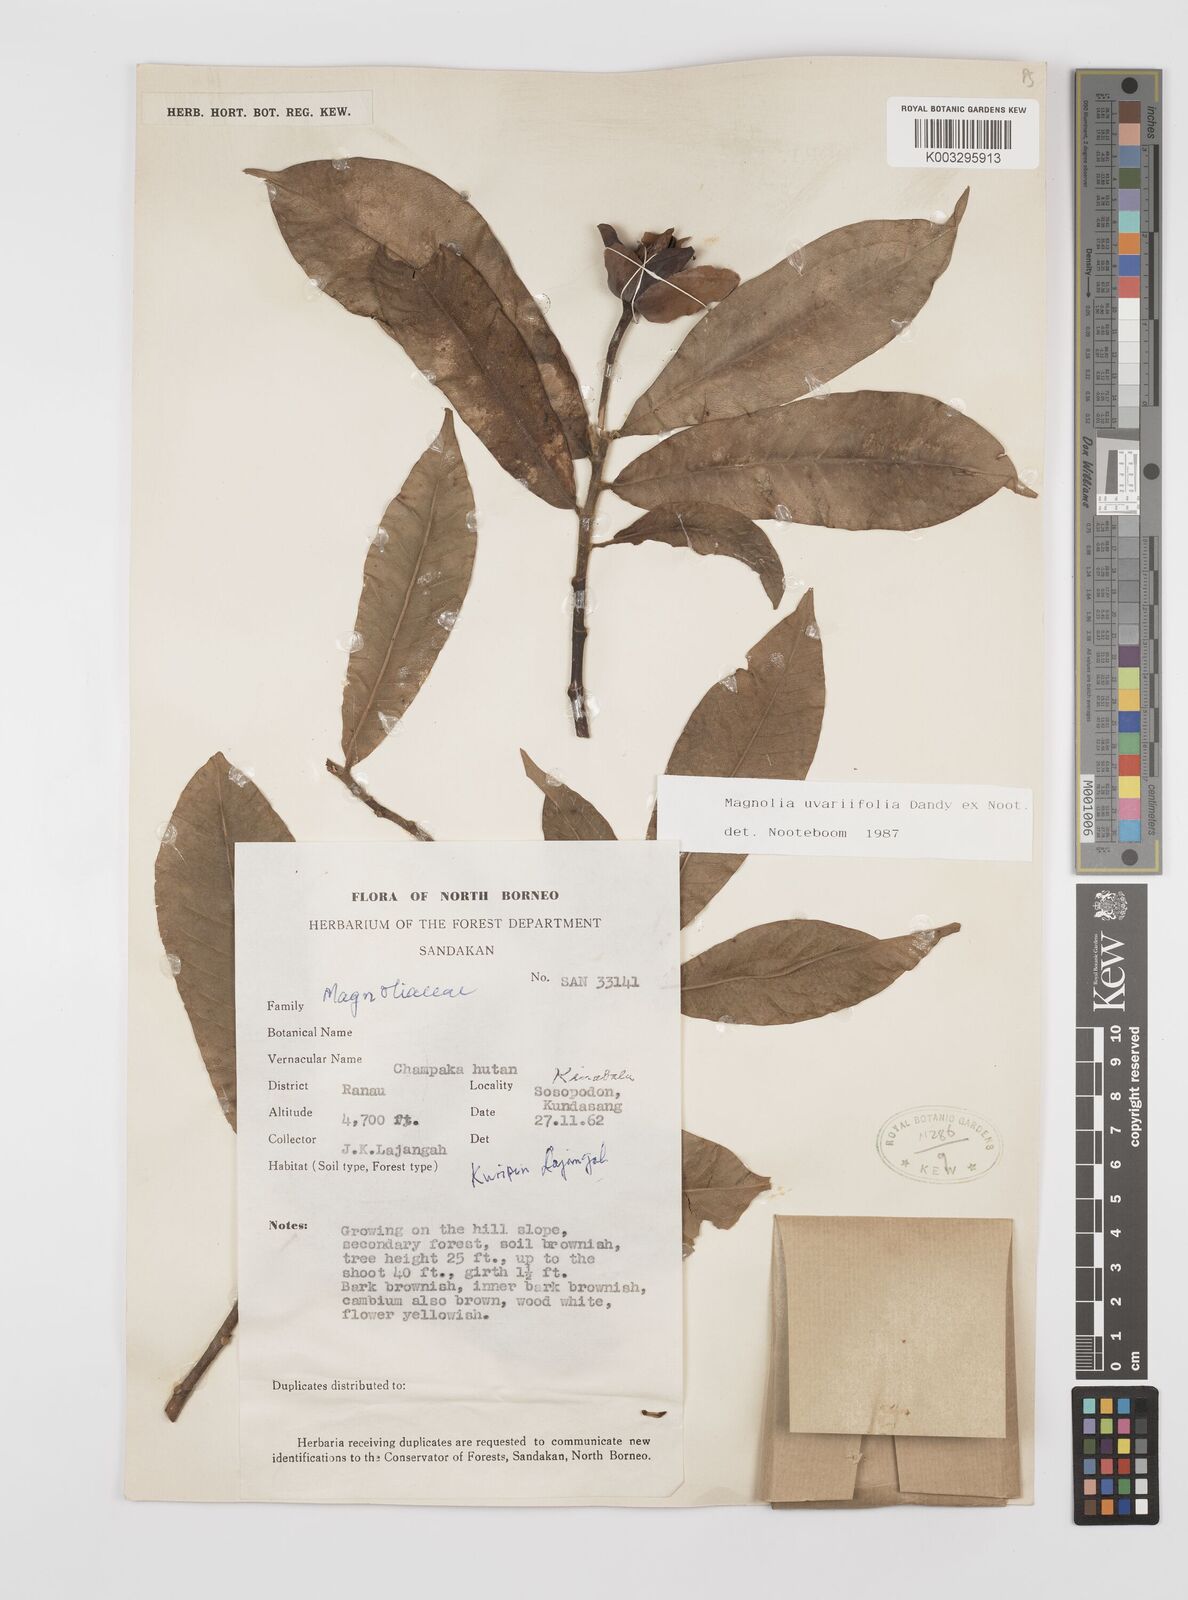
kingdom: Plantae
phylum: Tracheophyta
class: Magnoliopsida
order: Magnoliales
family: Magnoliaceae
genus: Magnolia
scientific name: Magnolia macklottii
